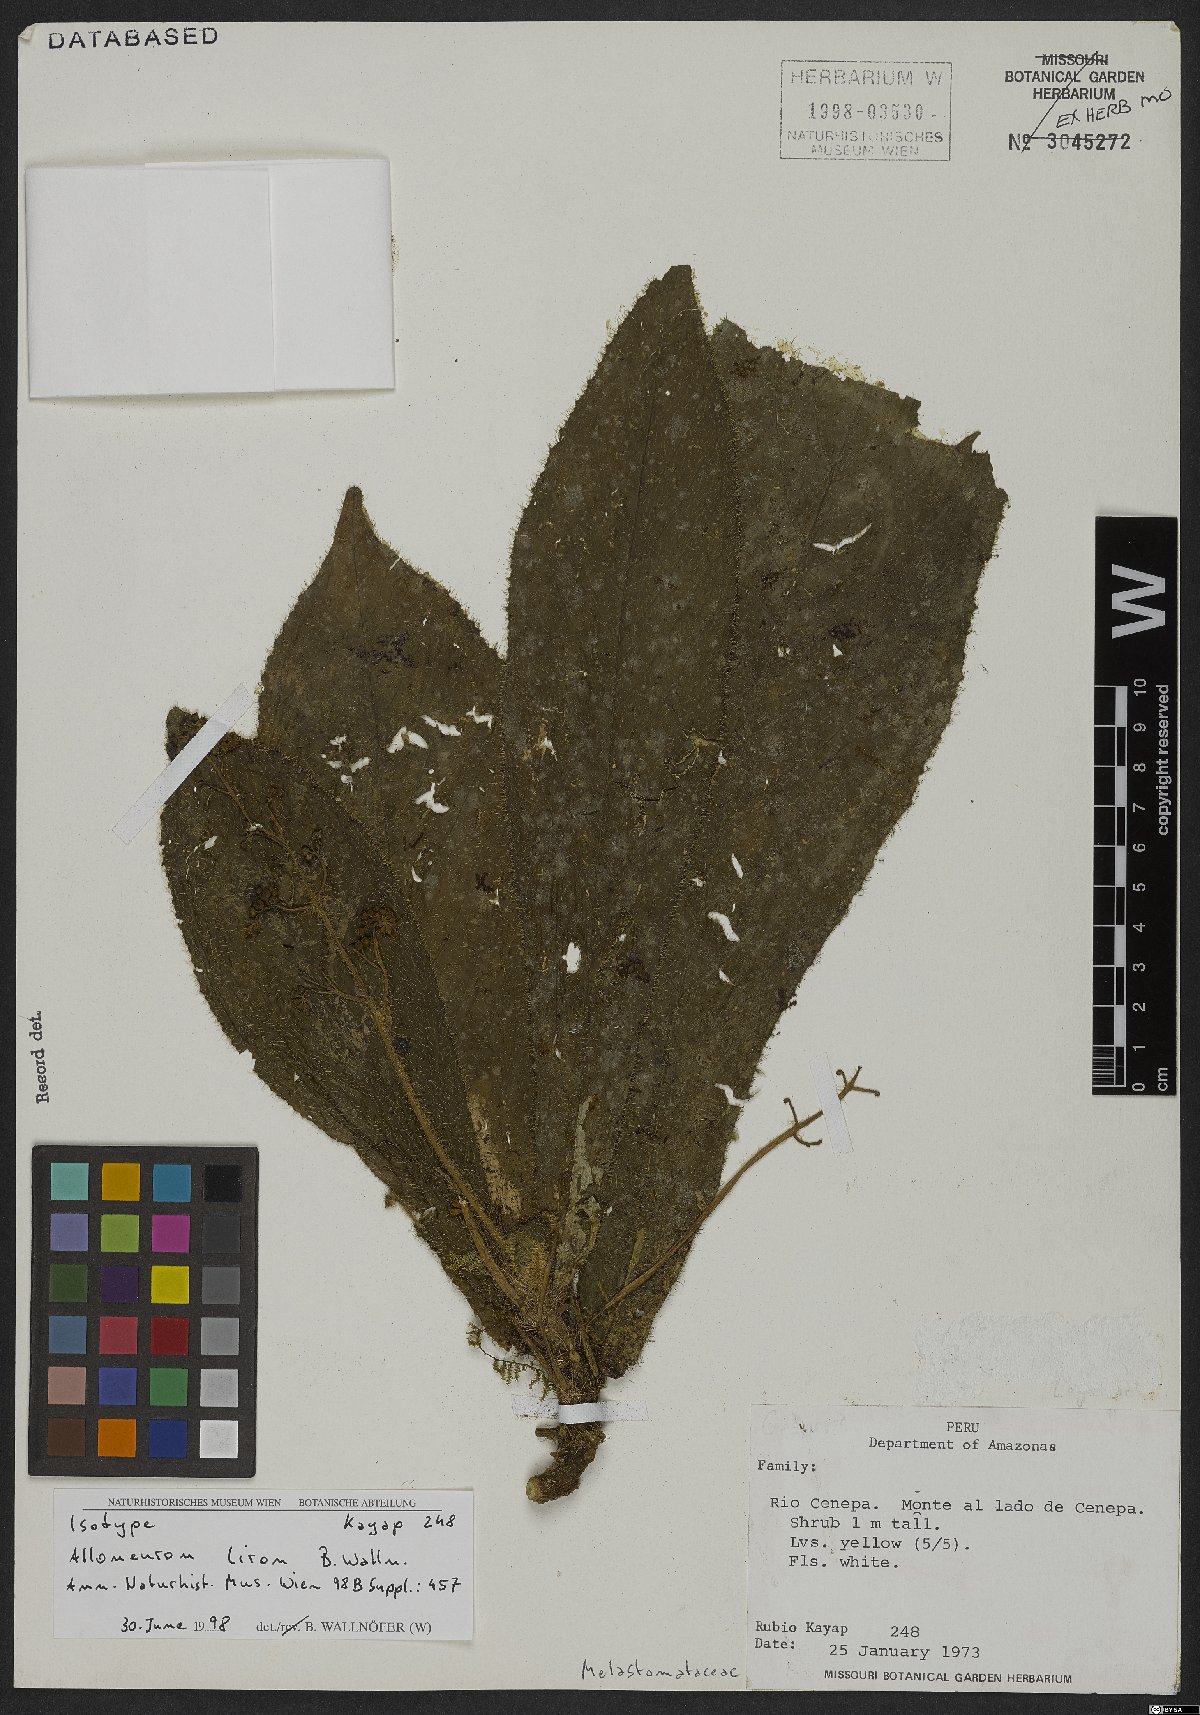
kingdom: Plantae
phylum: Tracheophyta
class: Magnoliopsida
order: Myrtales
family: Melastomataceae
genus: Alloneuron
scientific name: Alloneuron liron
